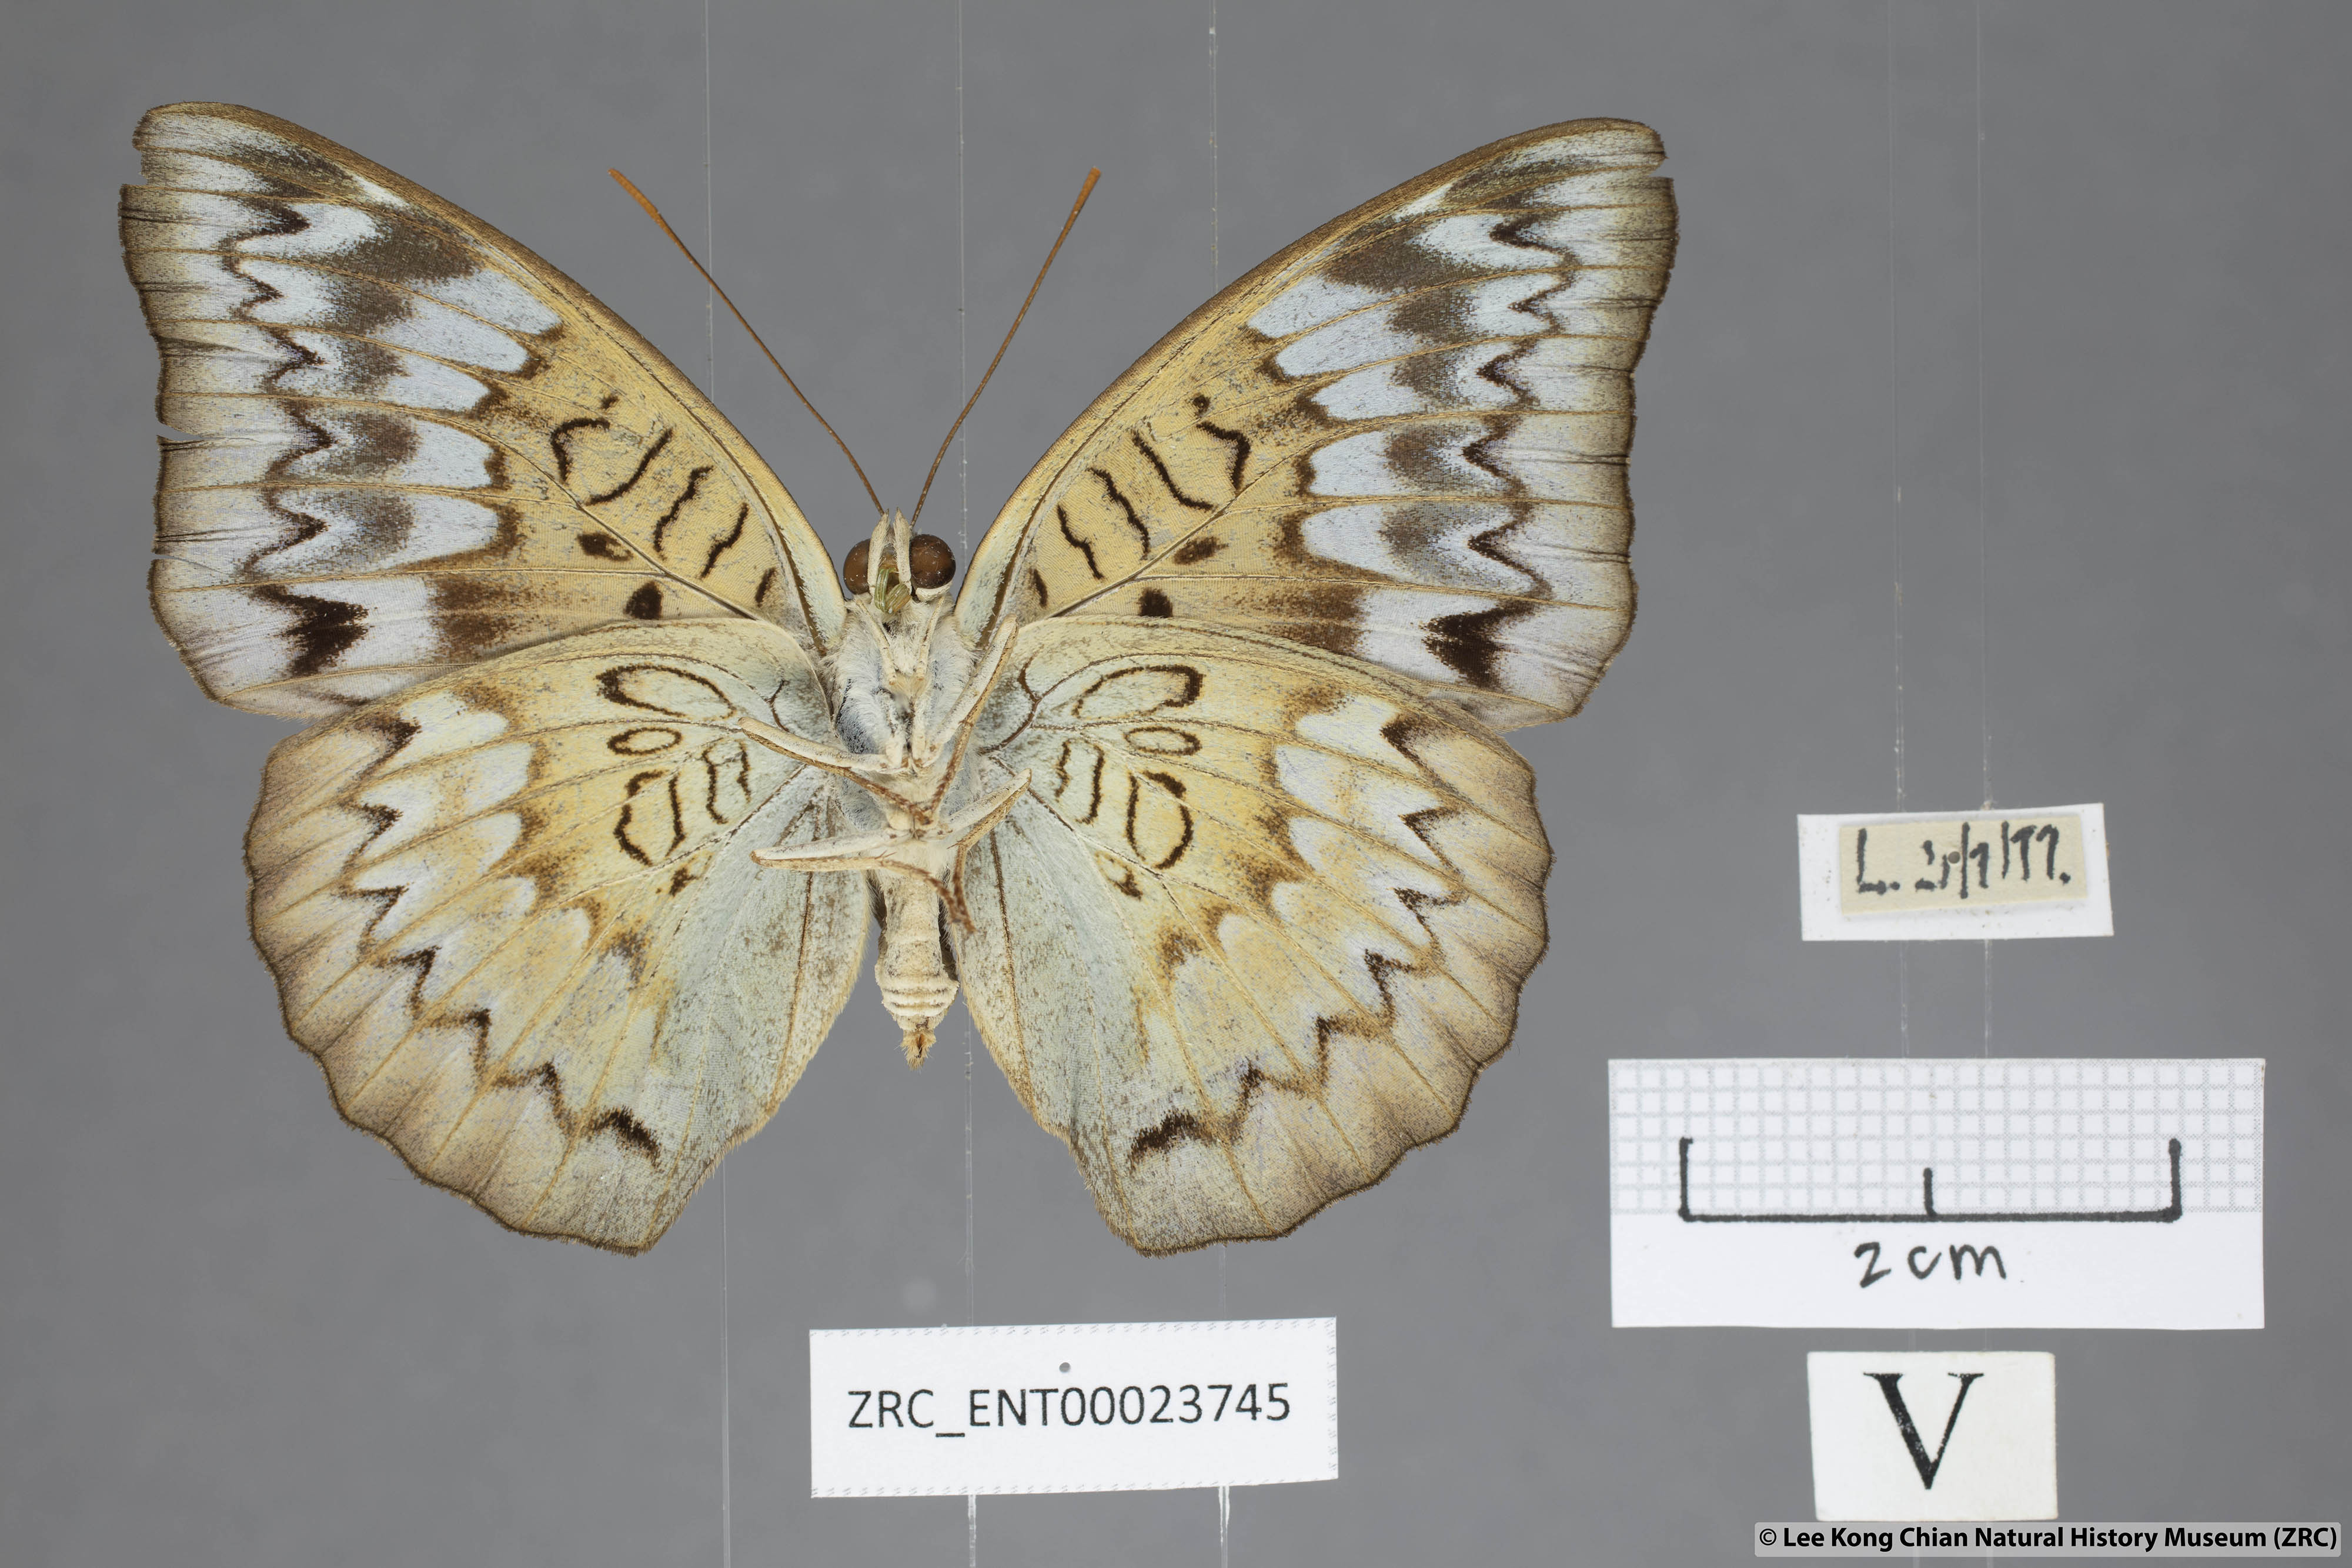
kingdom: Animalia
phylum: Arthropoda
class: Insecta
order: Lepidoptera
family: Nymphalidae
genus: Euthalia
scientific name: Euthalia monina
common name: Powdered baron
